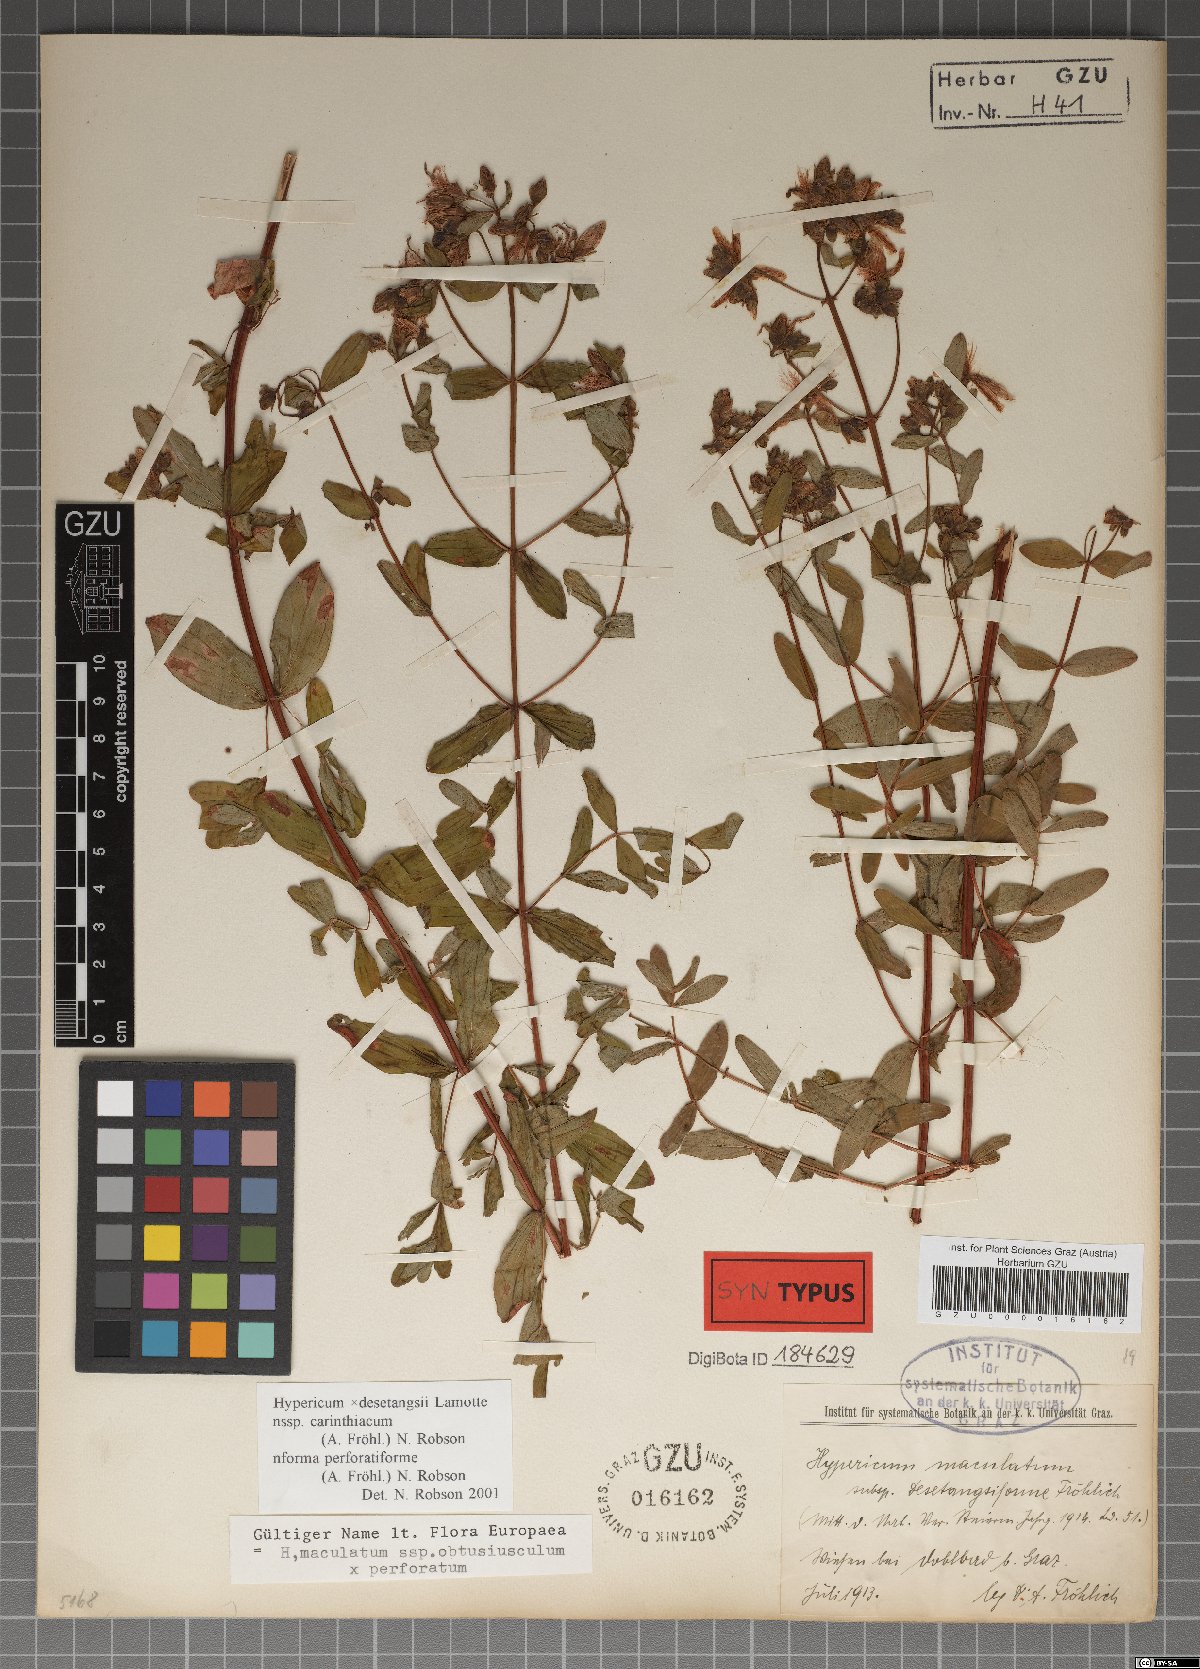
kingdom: Plantae
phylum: Tracheophyta
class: Magnoliopsida
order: Malpighiales
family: Hypericaceae
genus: Hypericum
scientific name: Hypericum carinthiacum
